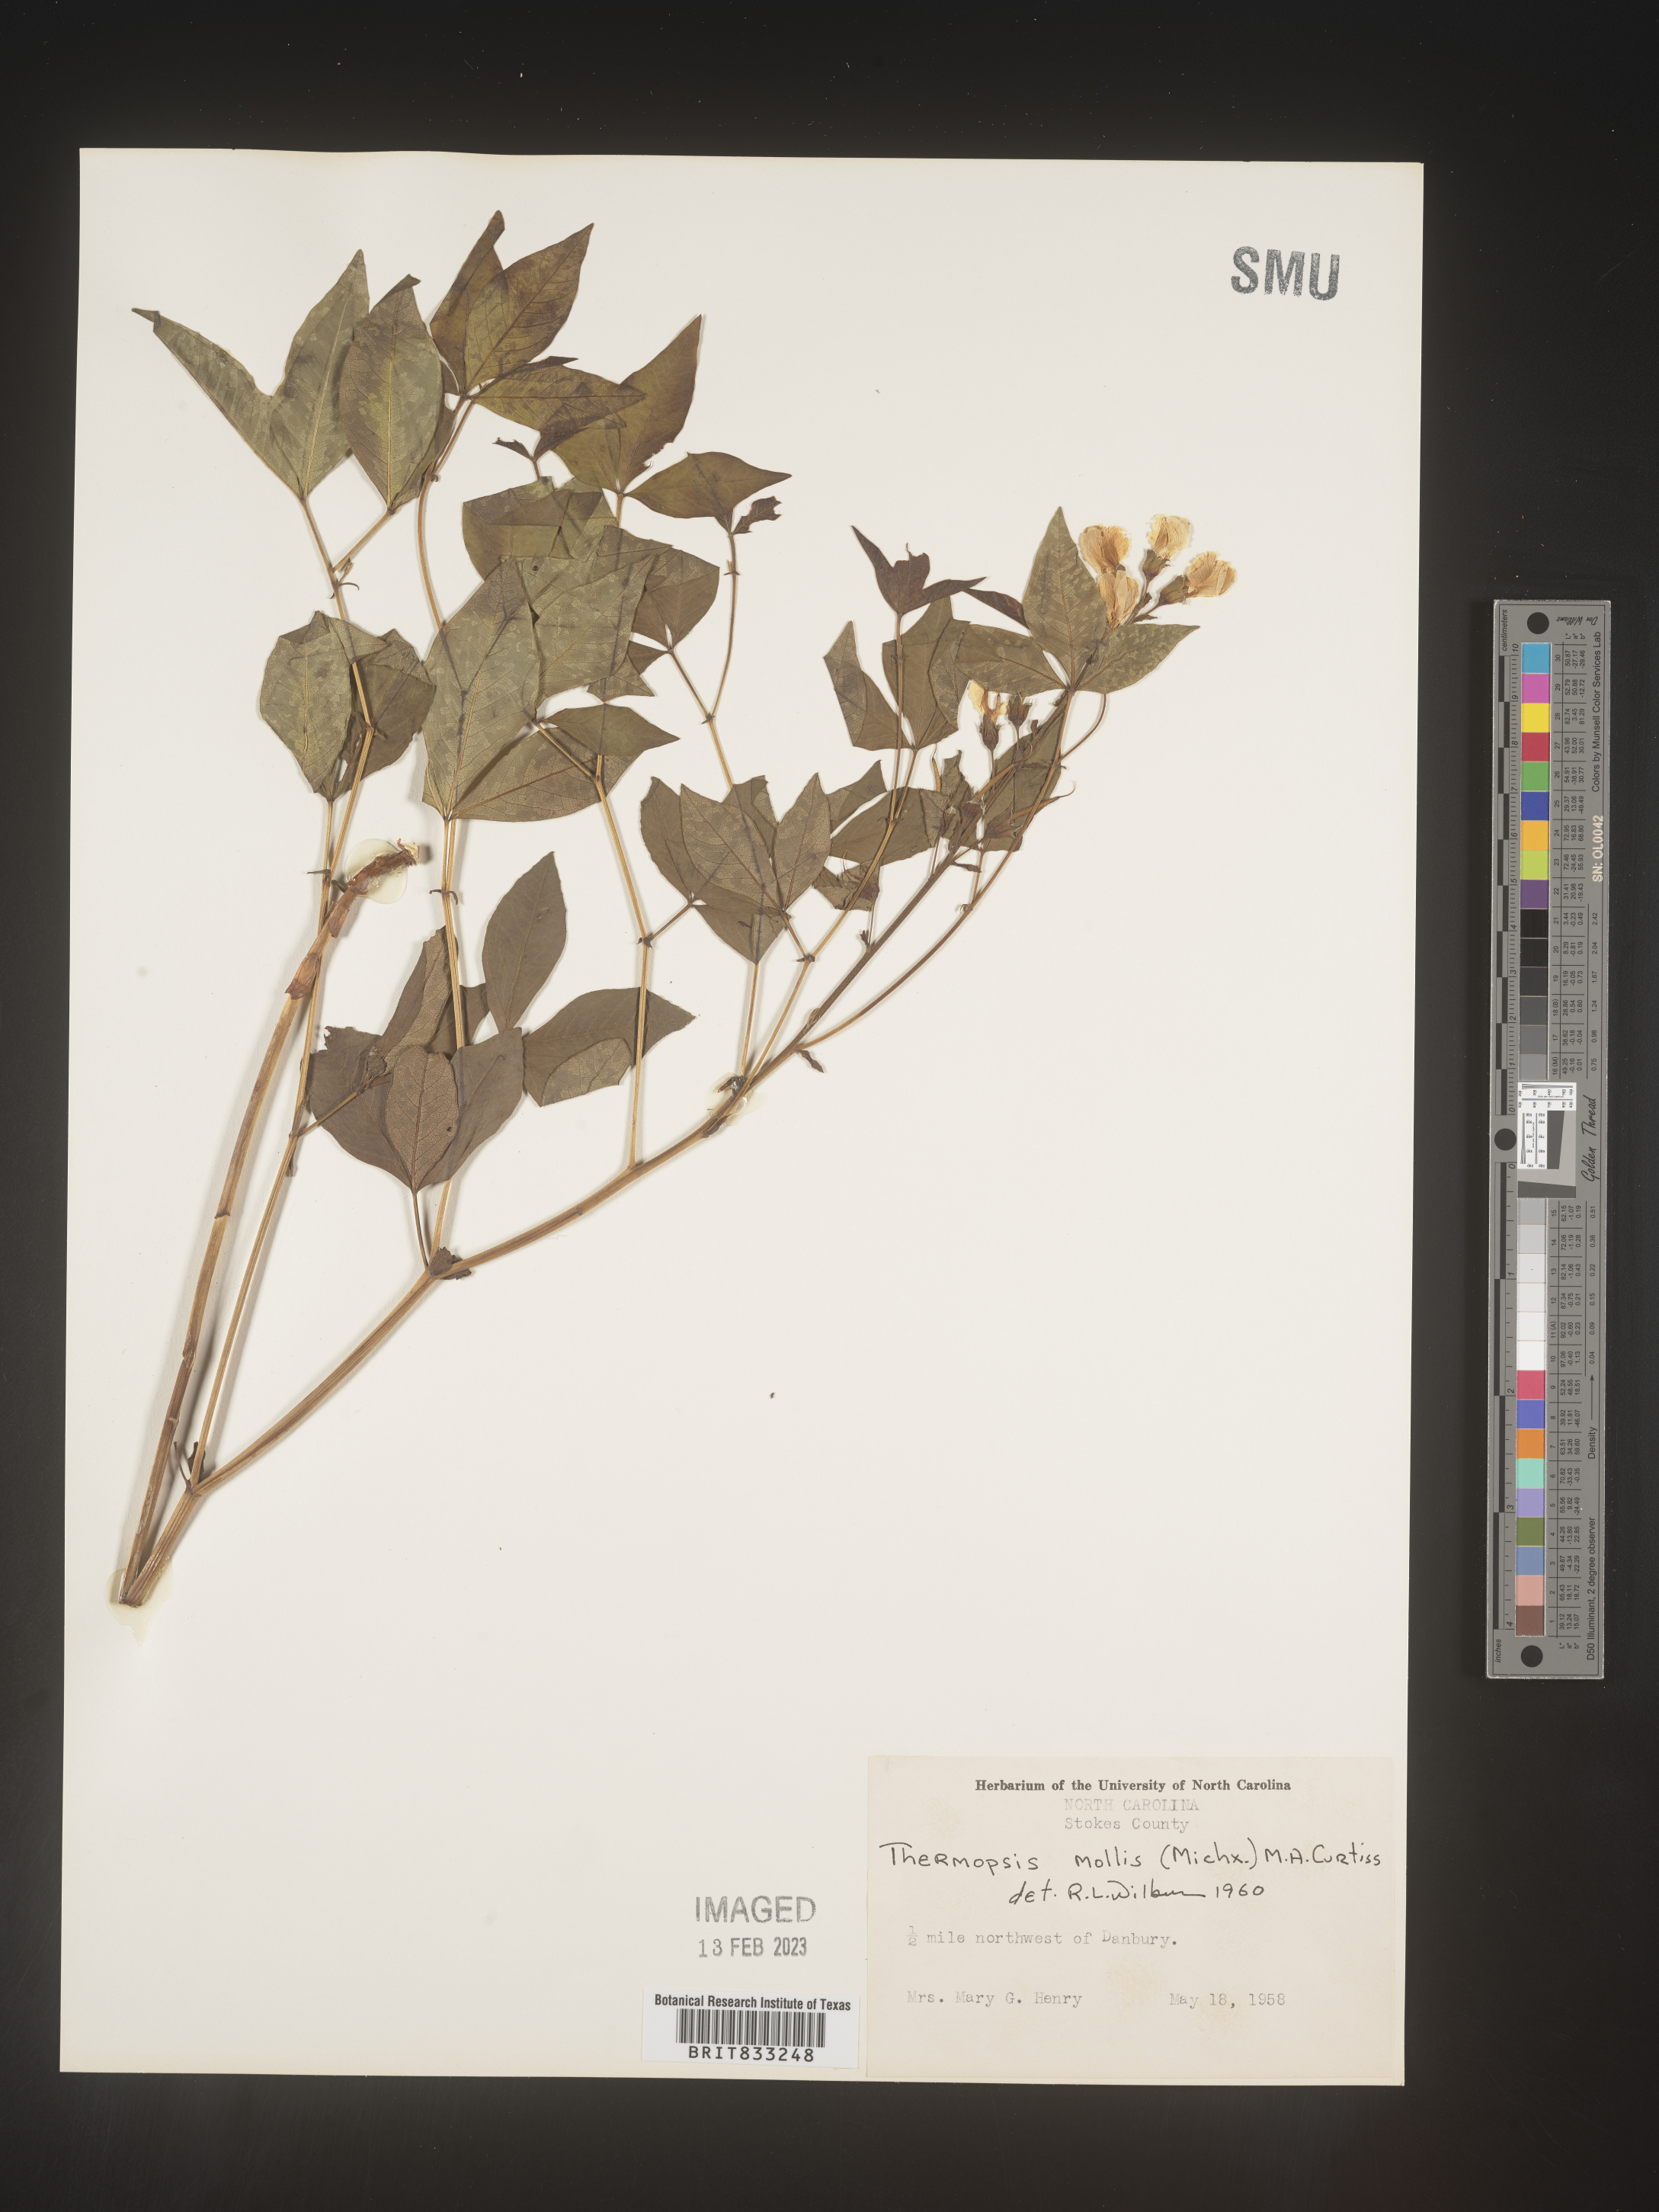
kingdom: Plantae
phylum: Tracheophyta
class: Magnoliopsida
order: Fabales
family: Fabaceae
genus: Thermopsis
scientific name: Thermopsis mollis
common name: Allegheny mountain goldenbanner
